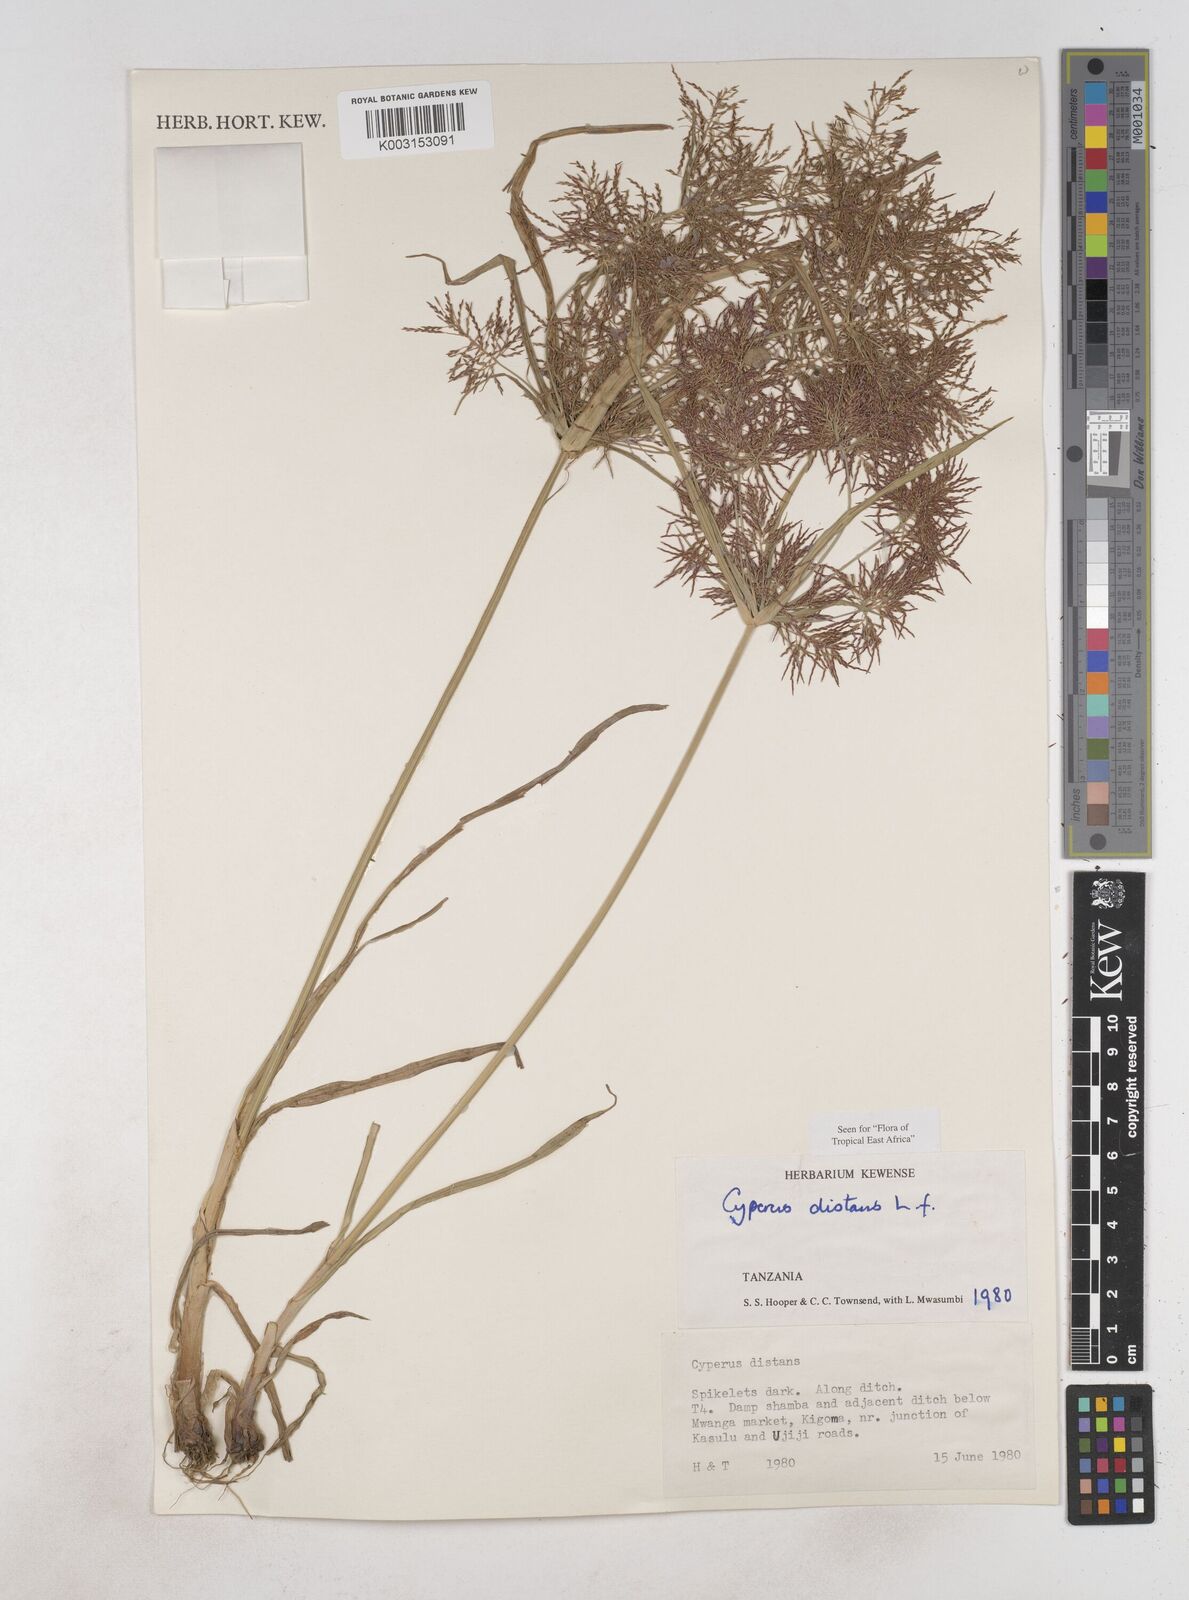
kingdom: Plantae
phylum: Tracheophyta
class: Liliopsida
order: Poales
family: Cyperaceae
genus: Cyperus
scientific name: Cyperus distans
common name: Slender cyperus
